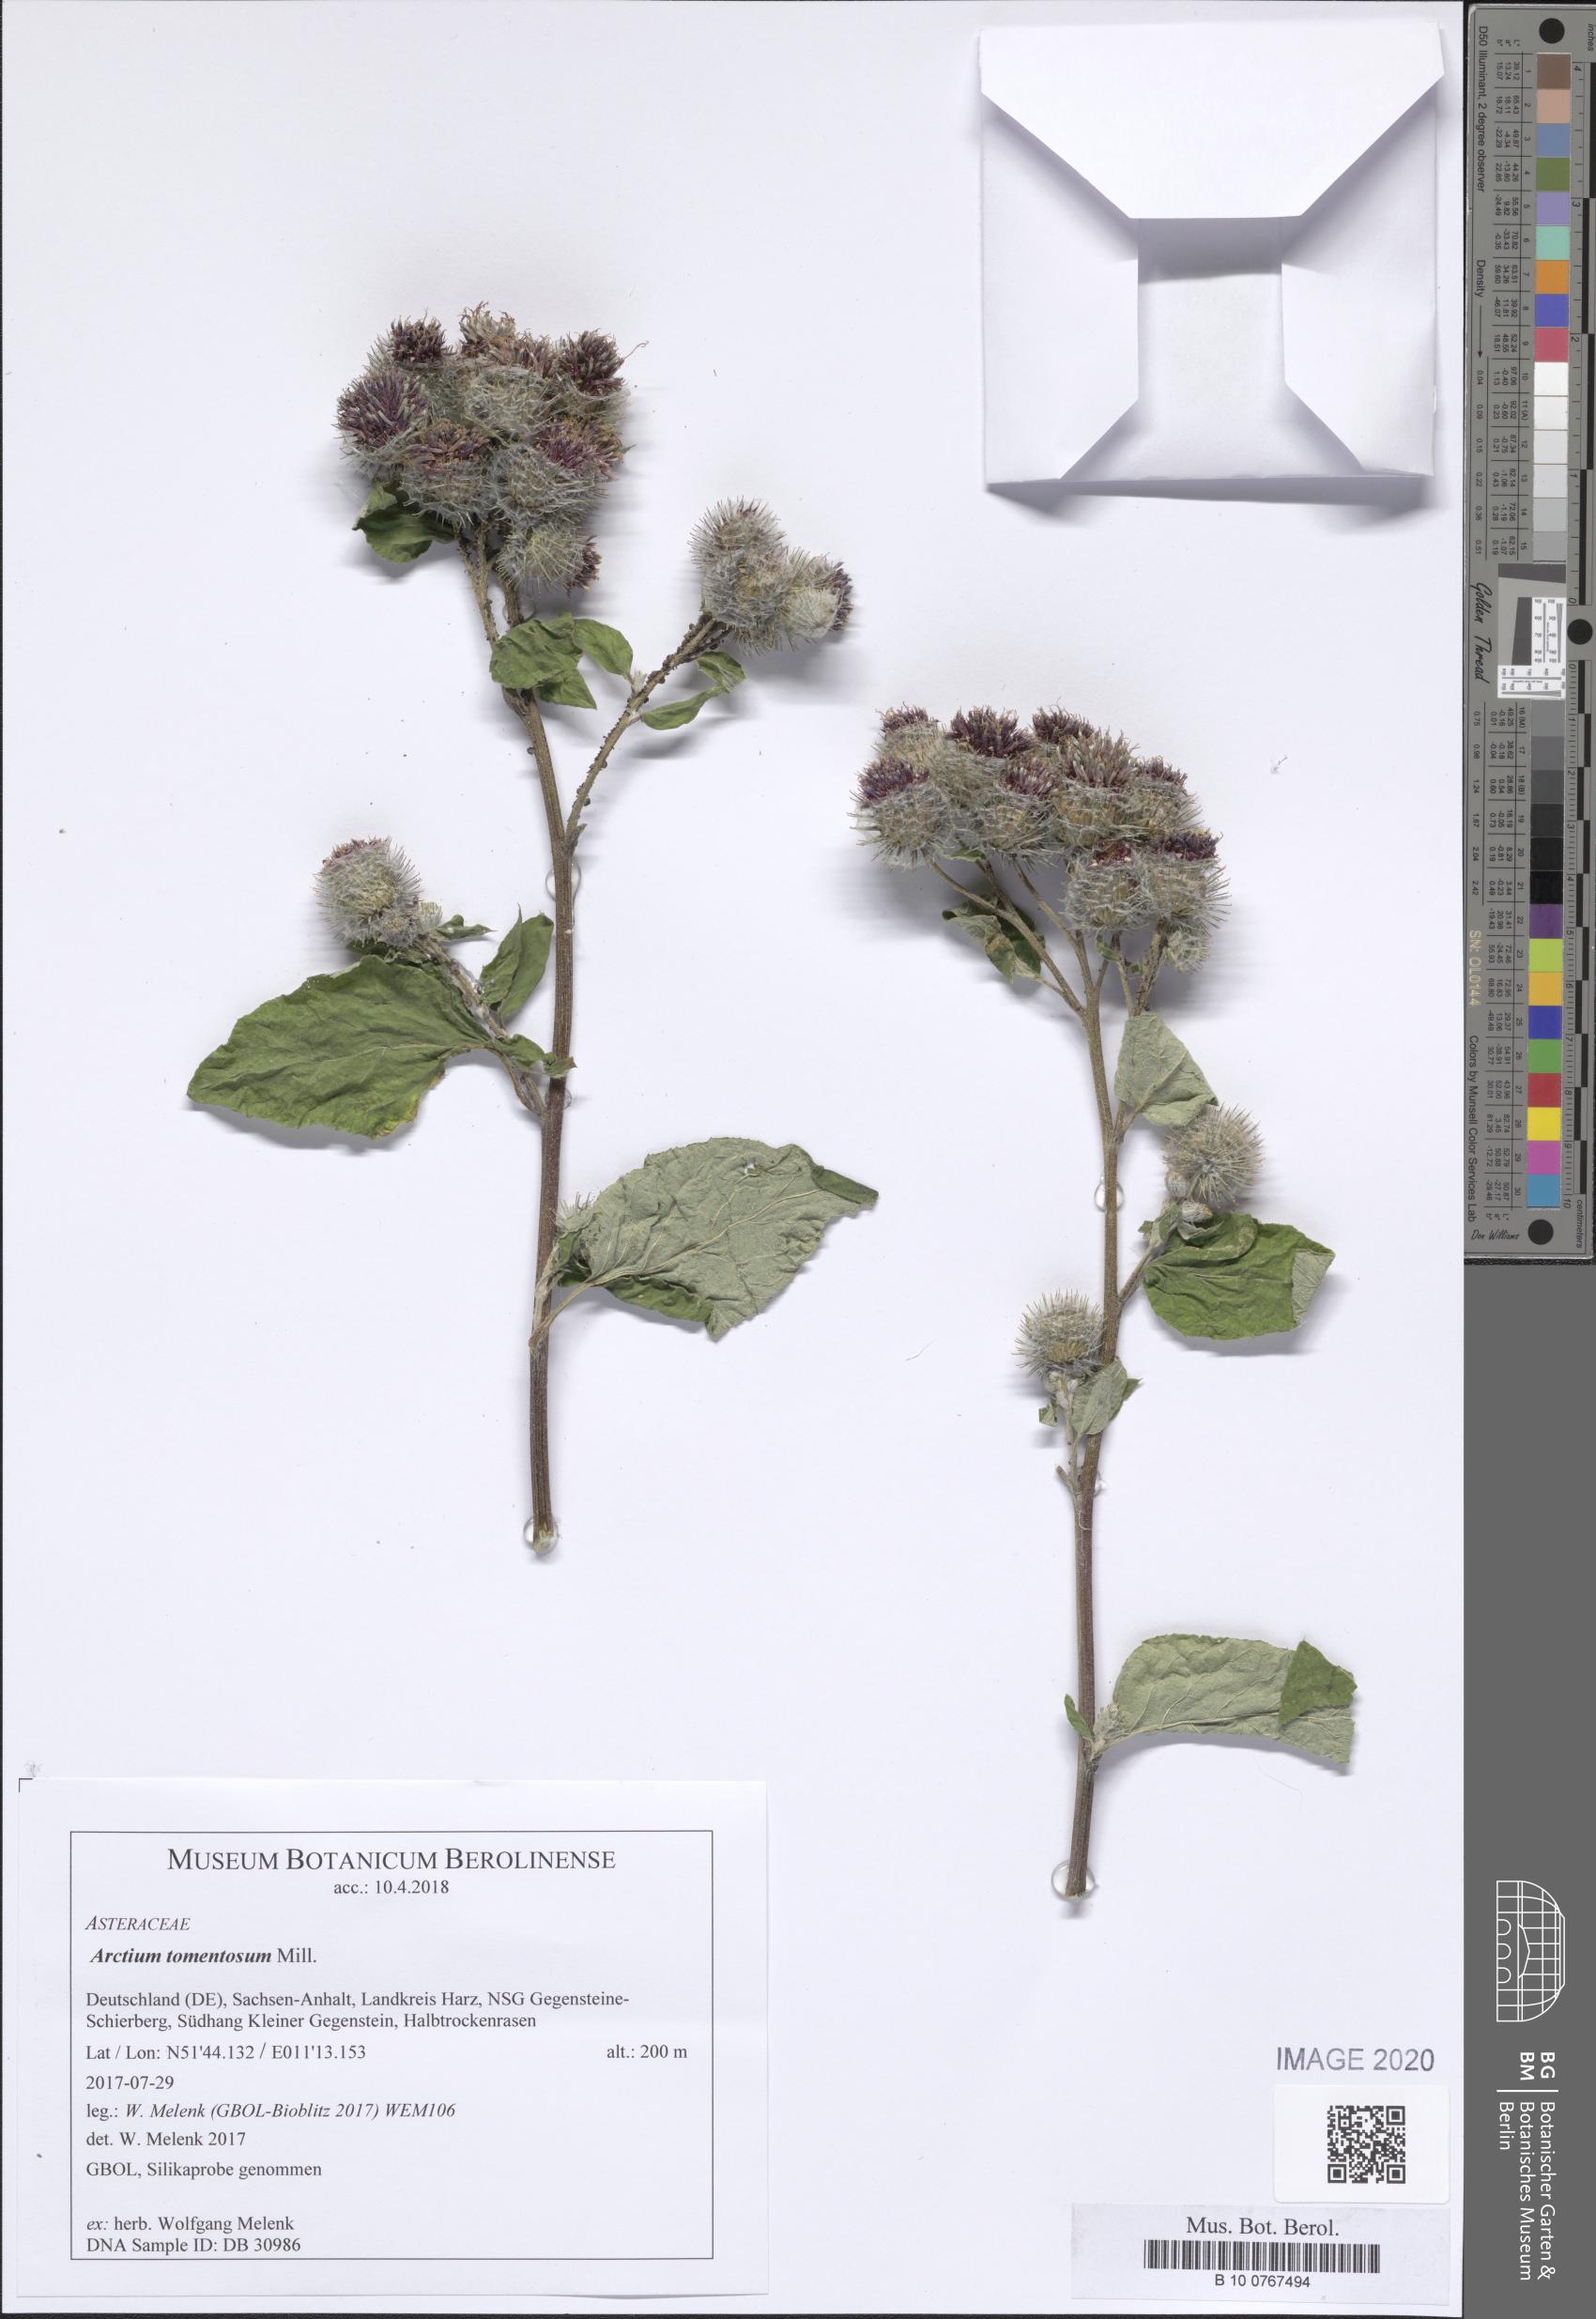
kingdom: Plantae
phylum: Tracheophyta
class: Magnoliopsida
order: Asterales
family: Asteraceae
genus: Arctium
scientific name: Arctium tomentosum
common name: Woolly burdock
